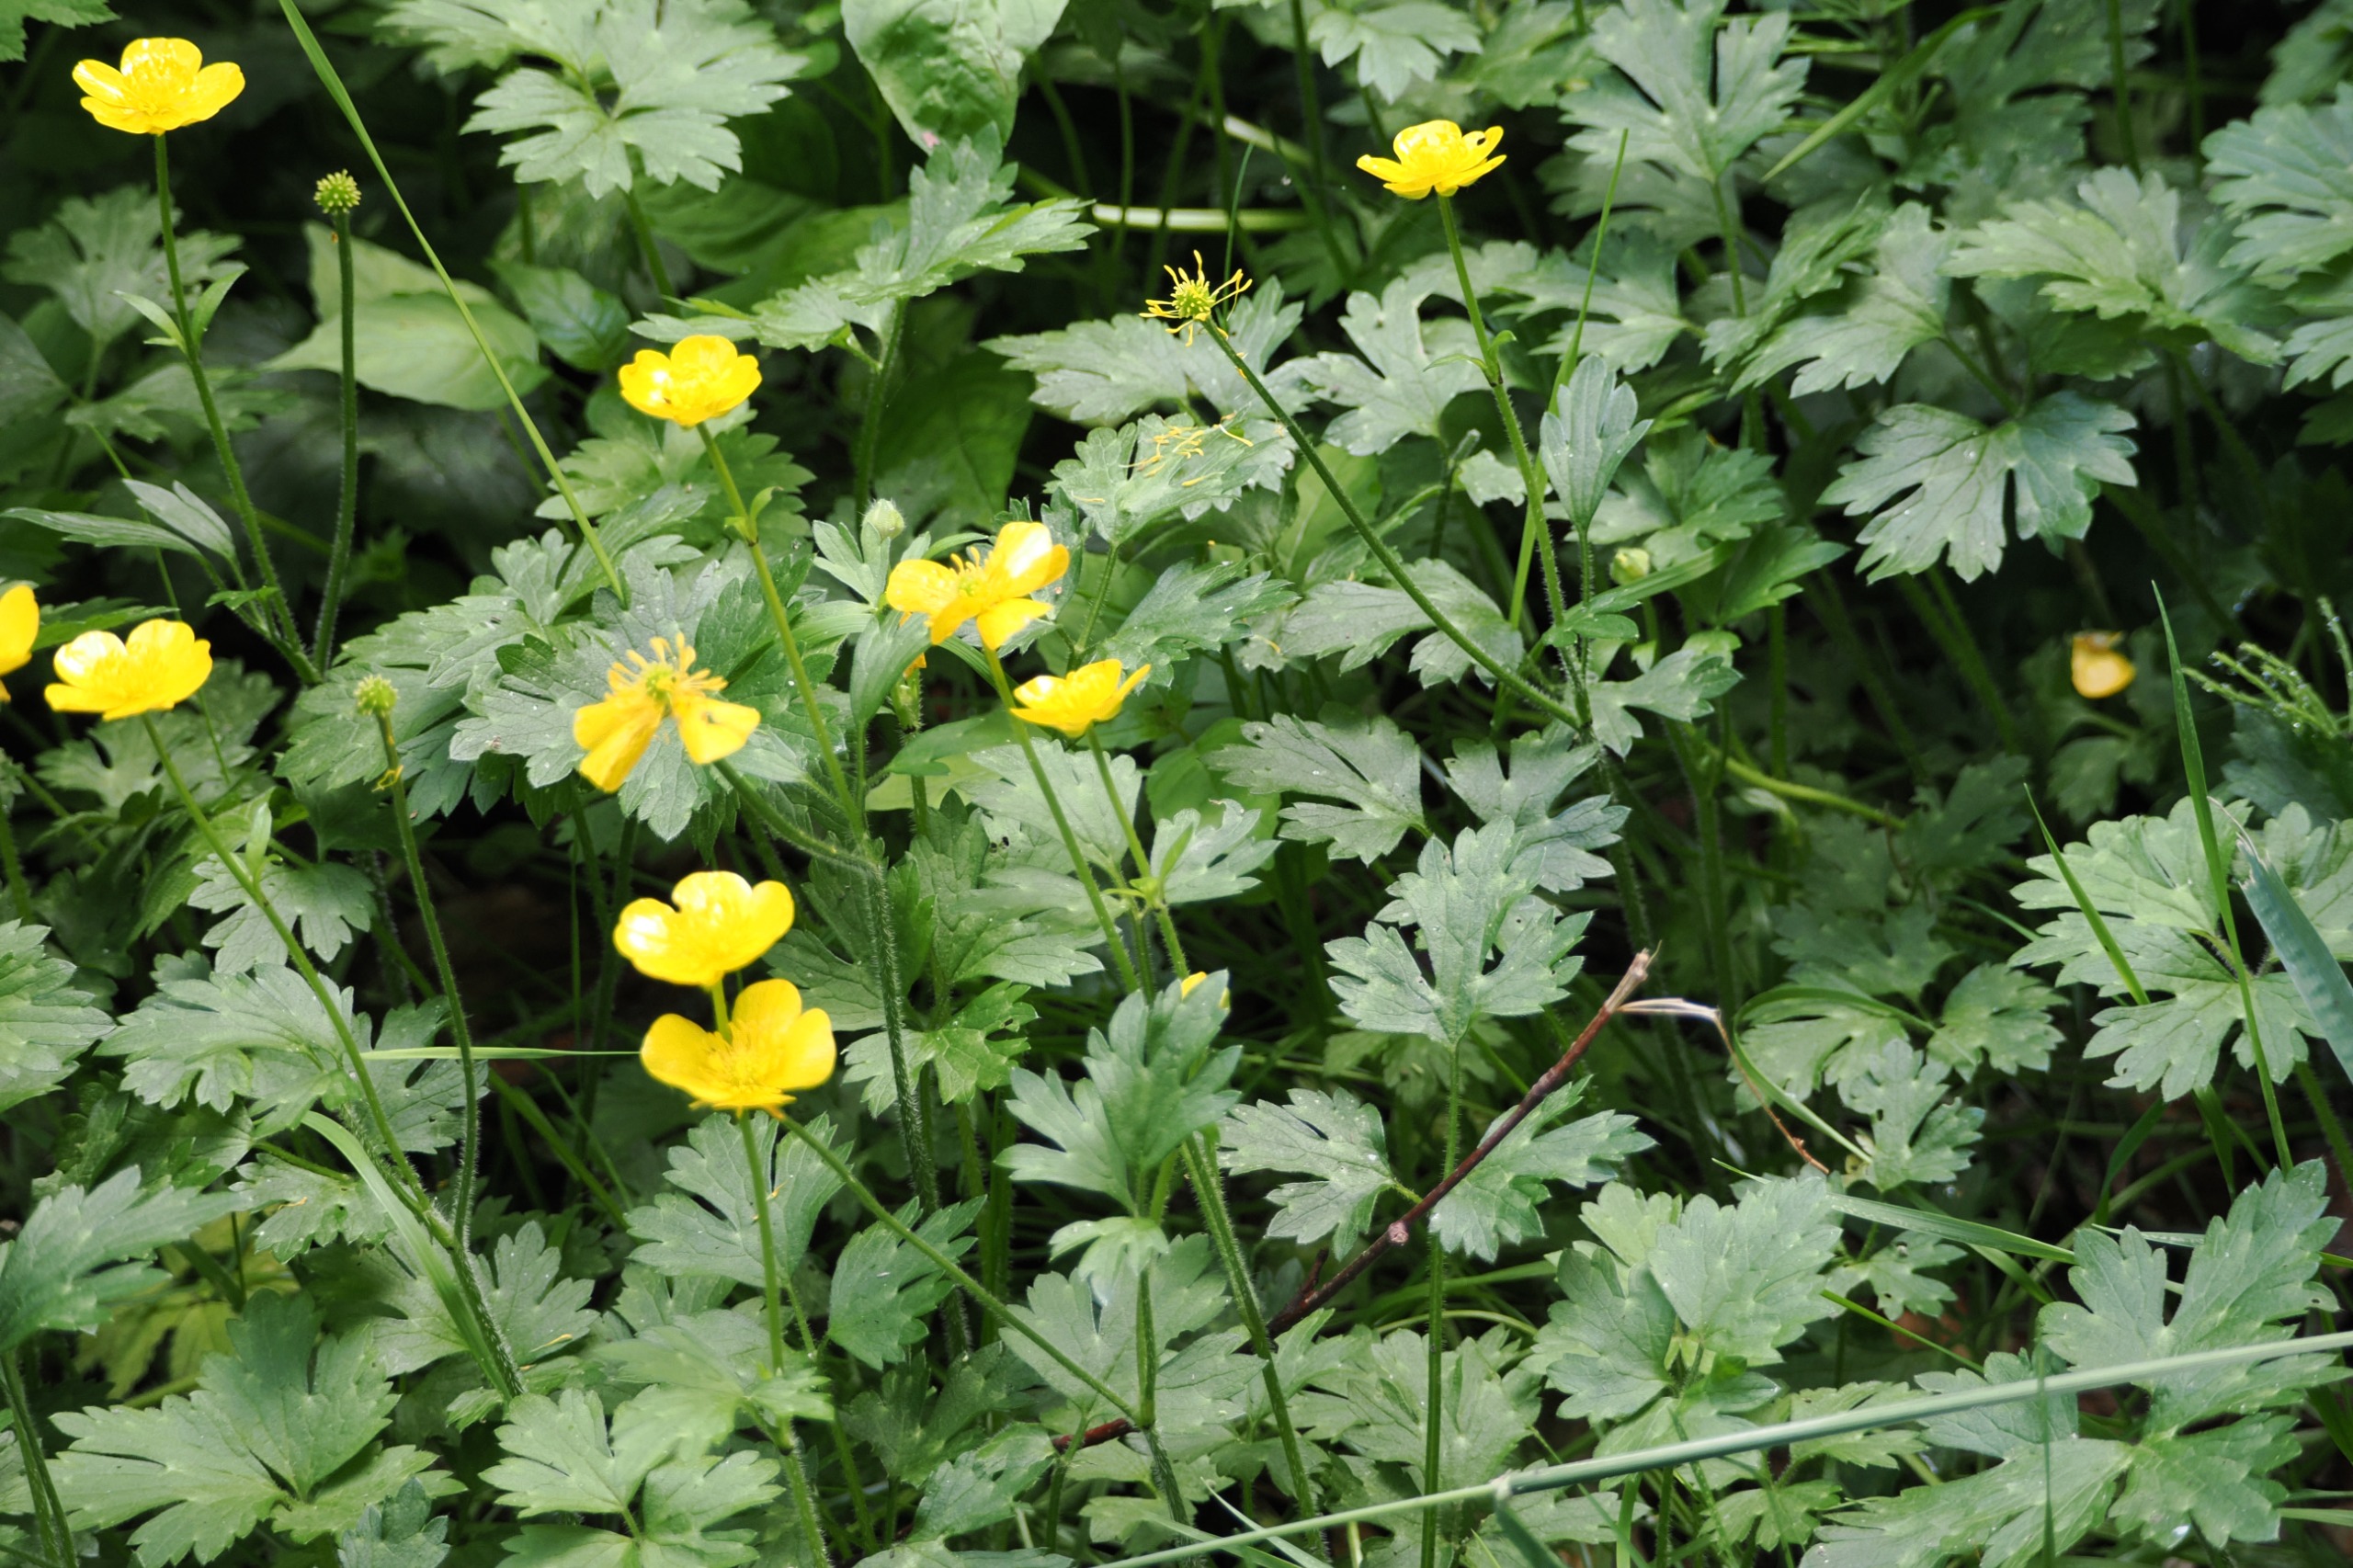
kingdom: Plantae
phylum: Tracheophyta
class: Magnoliopsida
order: Ranunculales
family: Ranunculaceae
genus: Ranunculus
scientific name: Ranunculus repens
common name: Lav ranunkel
